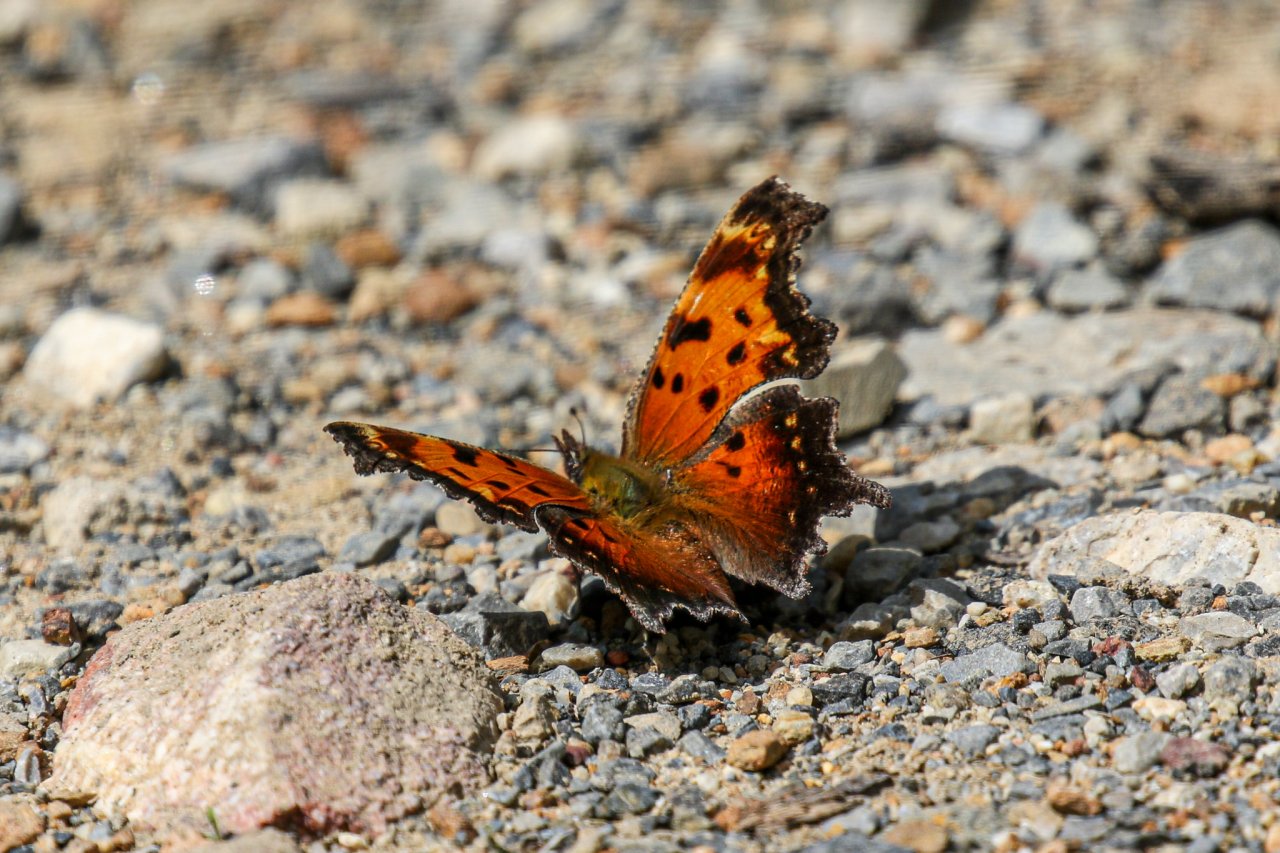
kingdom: Animalia
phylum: Arthropoda
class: Insecta
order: Lepidoptera
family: Nymphalidae
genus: Polygonia
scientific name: Polygonia progne
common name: Gray Comma
